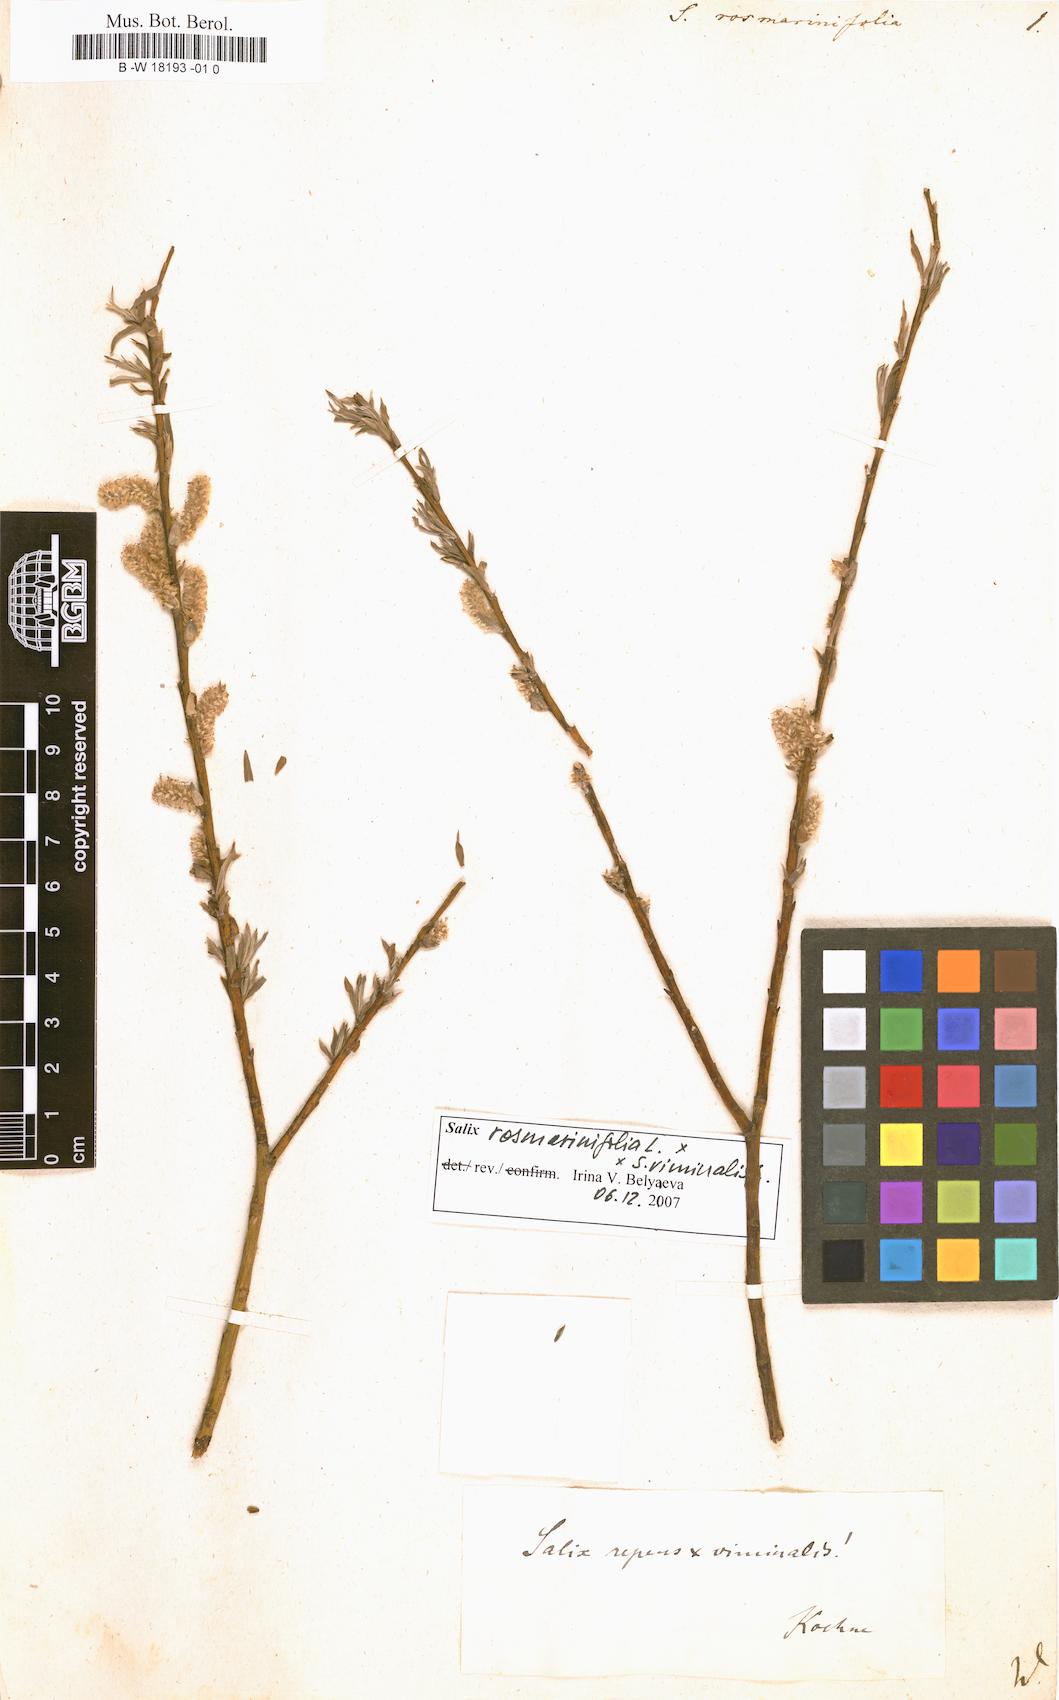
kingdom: Plantae
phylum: Tracheophyta
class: Magnoliopsida
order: Malpighiales
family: Salicaceae
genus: Salix
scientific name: Salix rosmarinifolia
